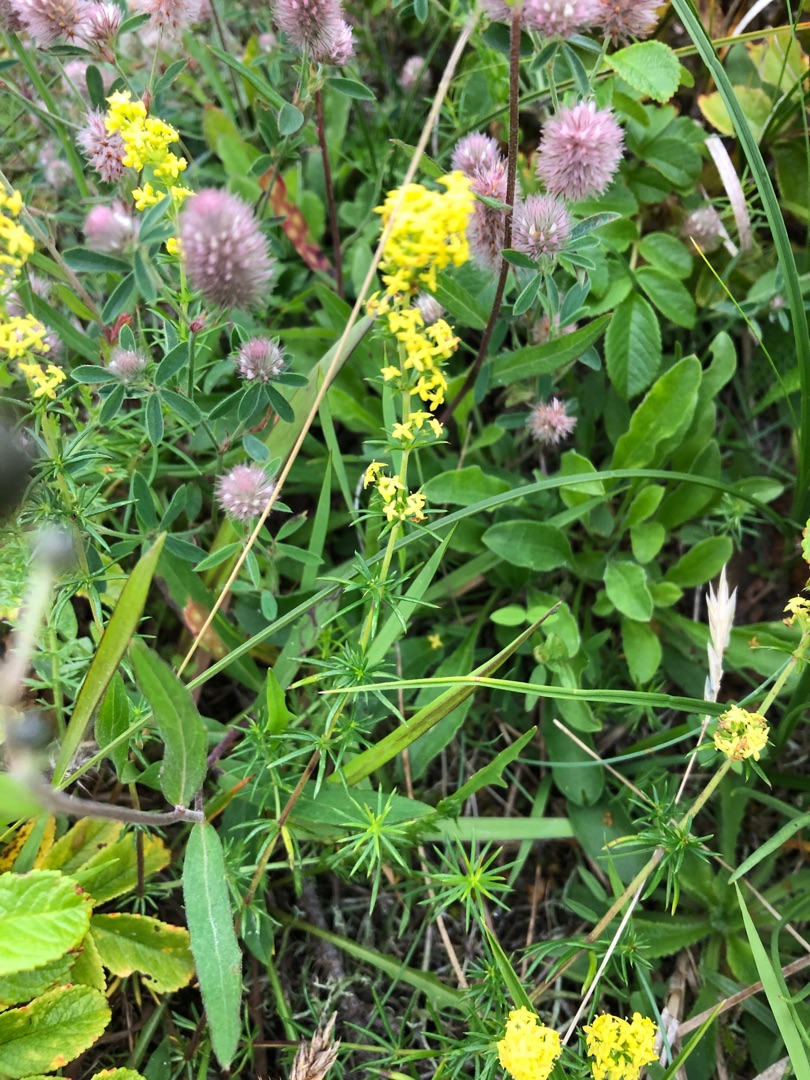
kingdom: Plantae
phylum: Tracheophyta
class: Magnoliopsida
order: Gentianales
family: Rubiaceae
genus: Galium
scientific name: Galium verum
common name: Gul snerre
